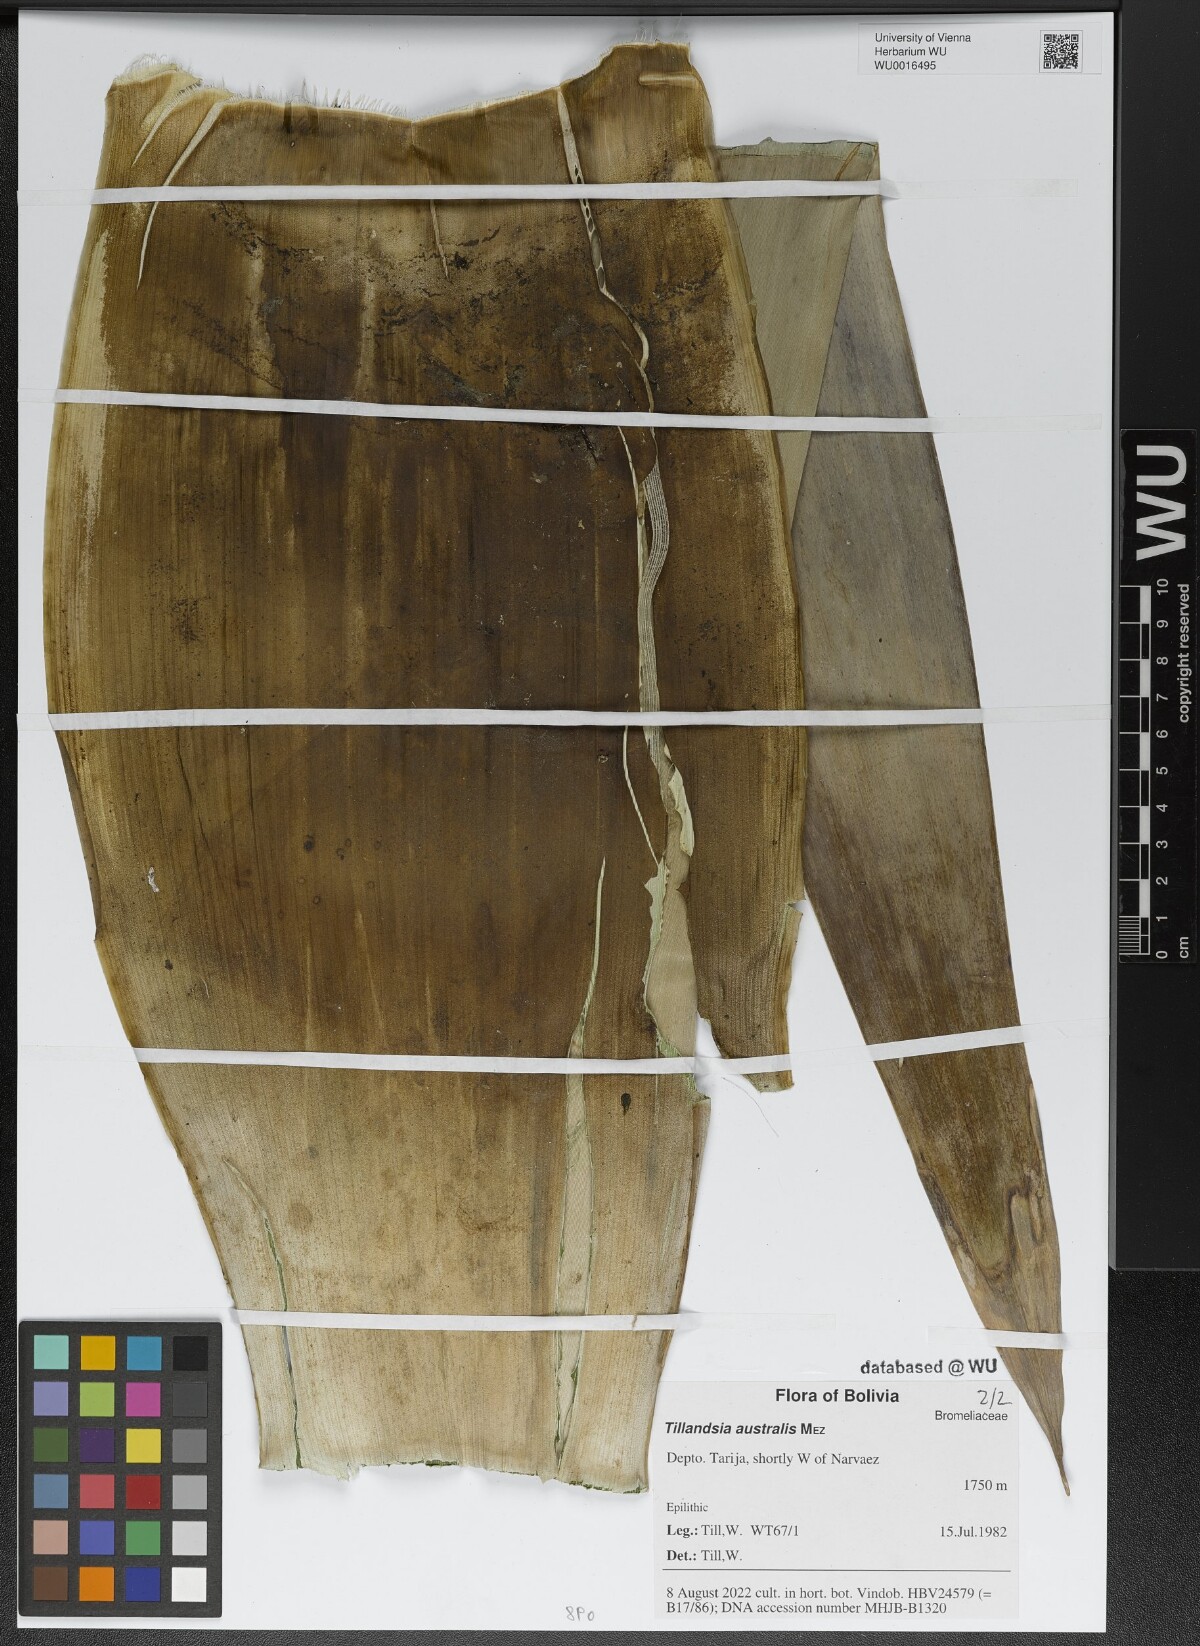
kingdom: Plantae
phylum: Tracheophyta
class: Liliopsida
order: Poales
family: Bromeliaceae
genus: Tillandsia
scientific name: Tillandsia australis
